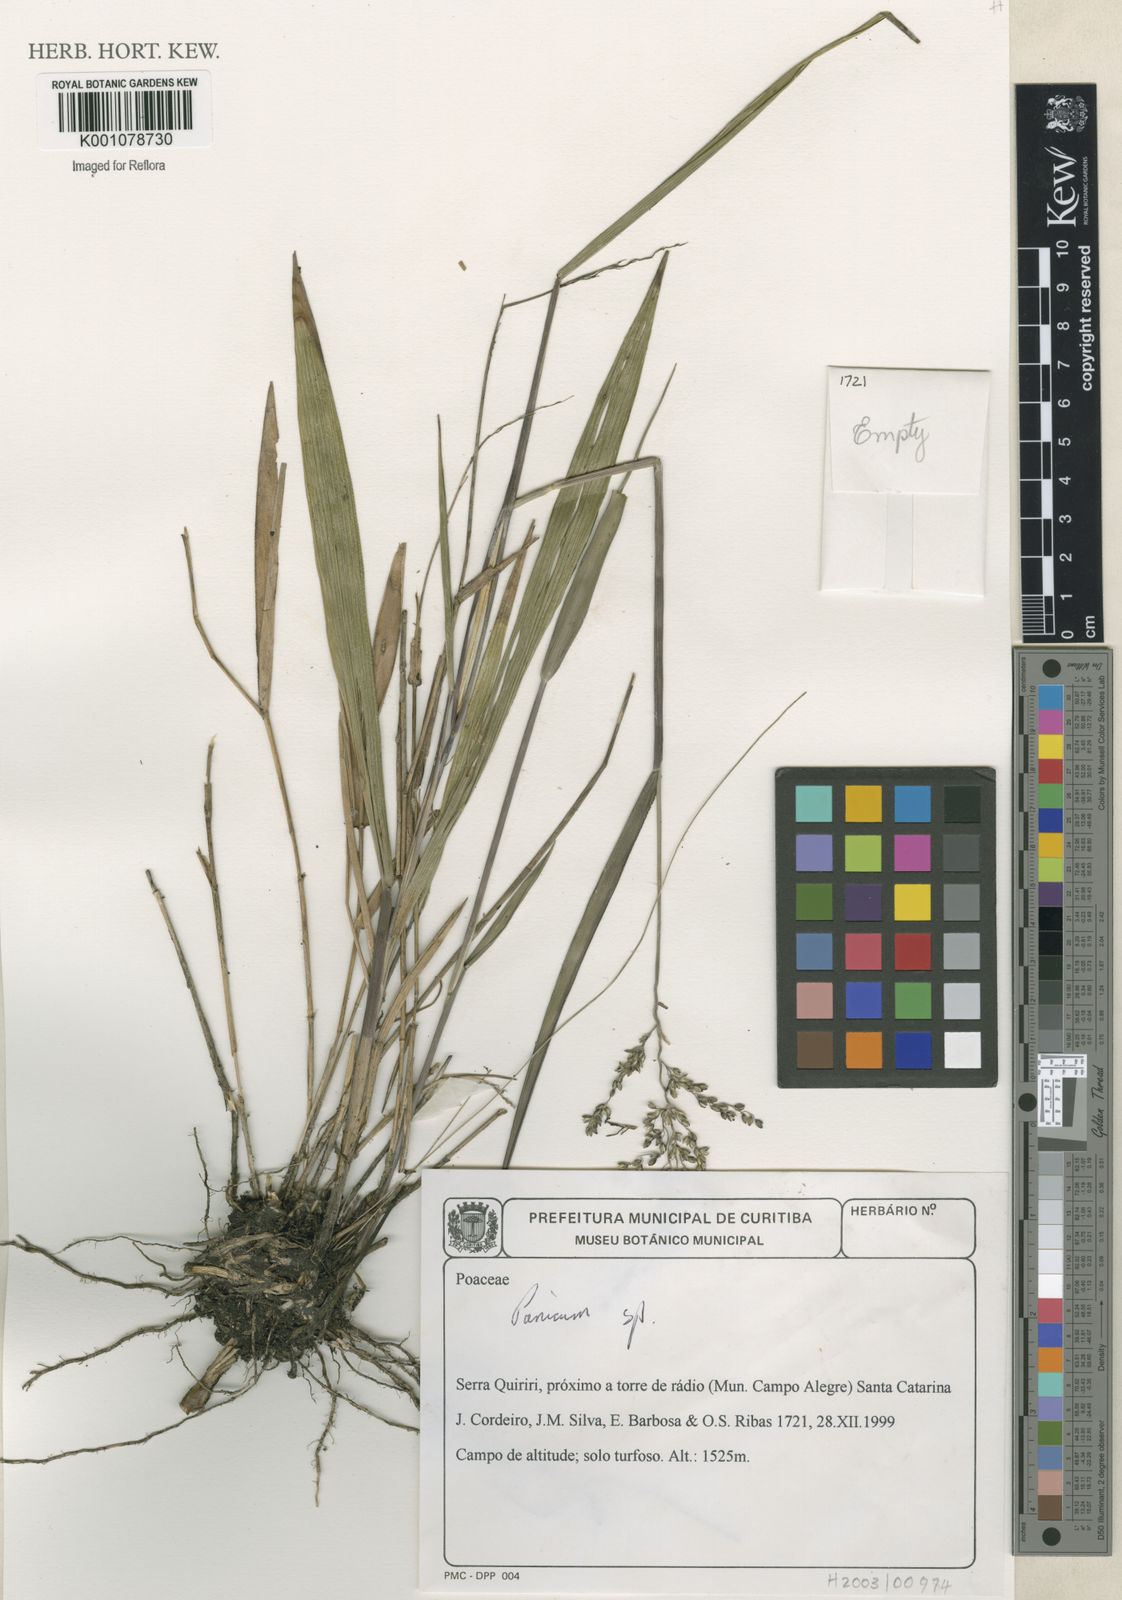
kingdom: Plantae
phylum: Tracheophyta
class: Liliopsida
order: Poales
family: Poaceae
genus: Panicum
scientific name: Panicum
